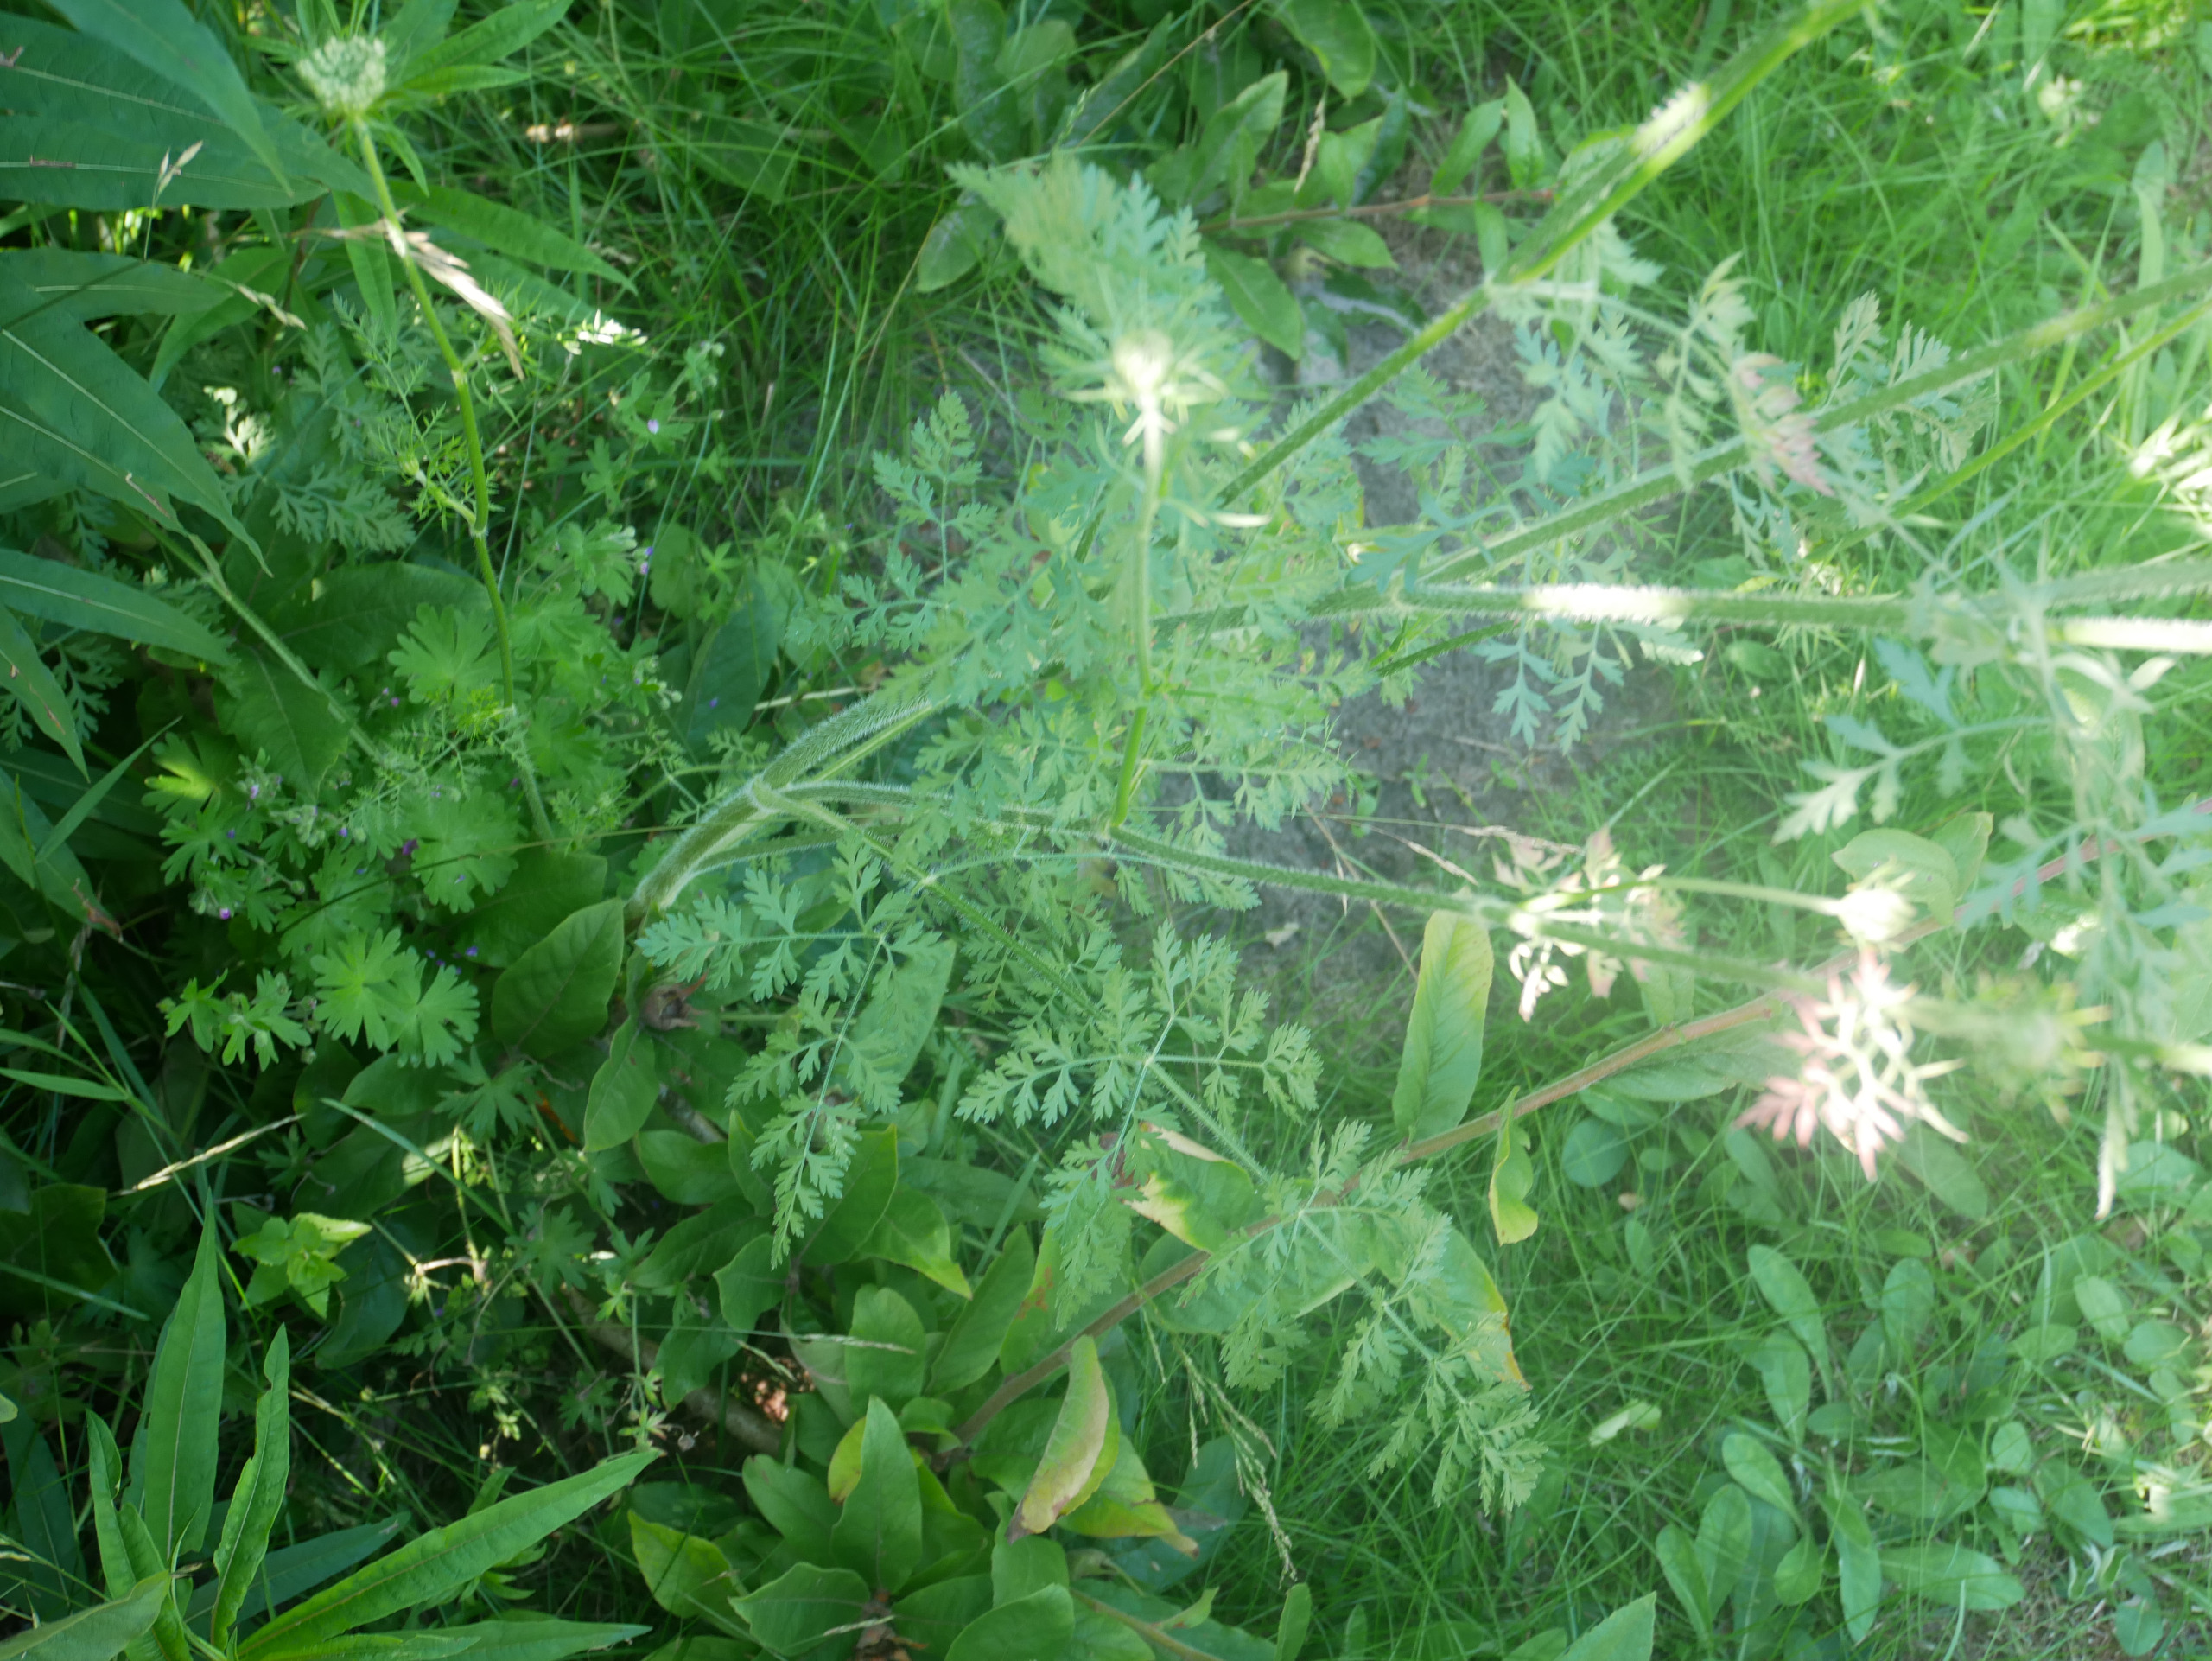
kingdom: Plantae
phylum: Tracheophyta
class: Magnoliopsida
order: Apiales
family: Apiaceae
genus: Daucus
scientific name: Daucus carota
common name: Gulerod
